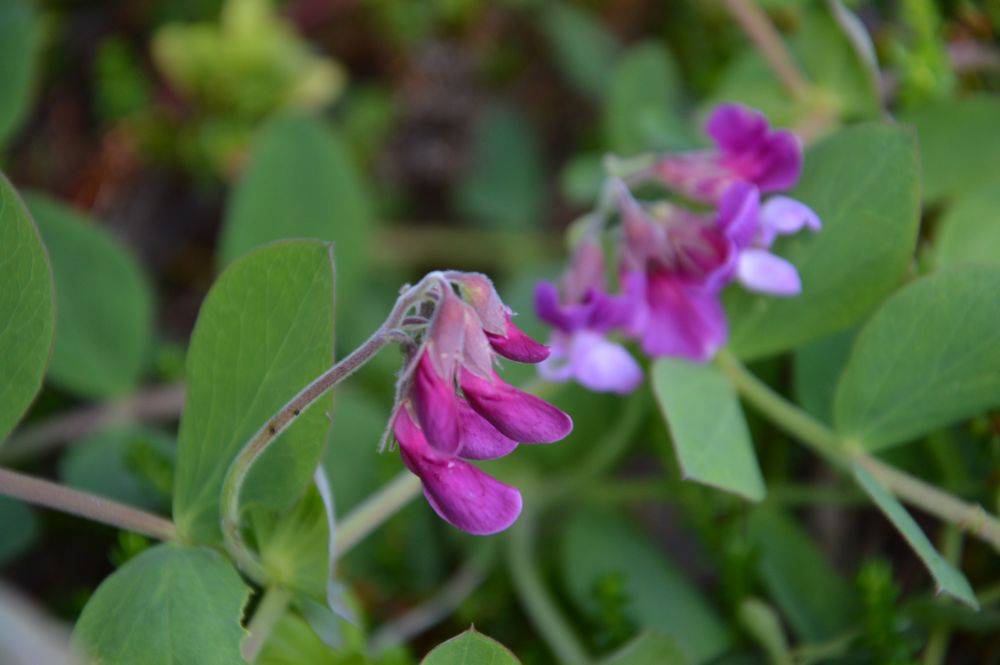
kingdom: Plantae
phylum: Tracheophyta
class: Magnoliopsida
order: Fabales
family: Fabaceae
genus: Lathyrus
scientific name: Lathyrus japonicus
